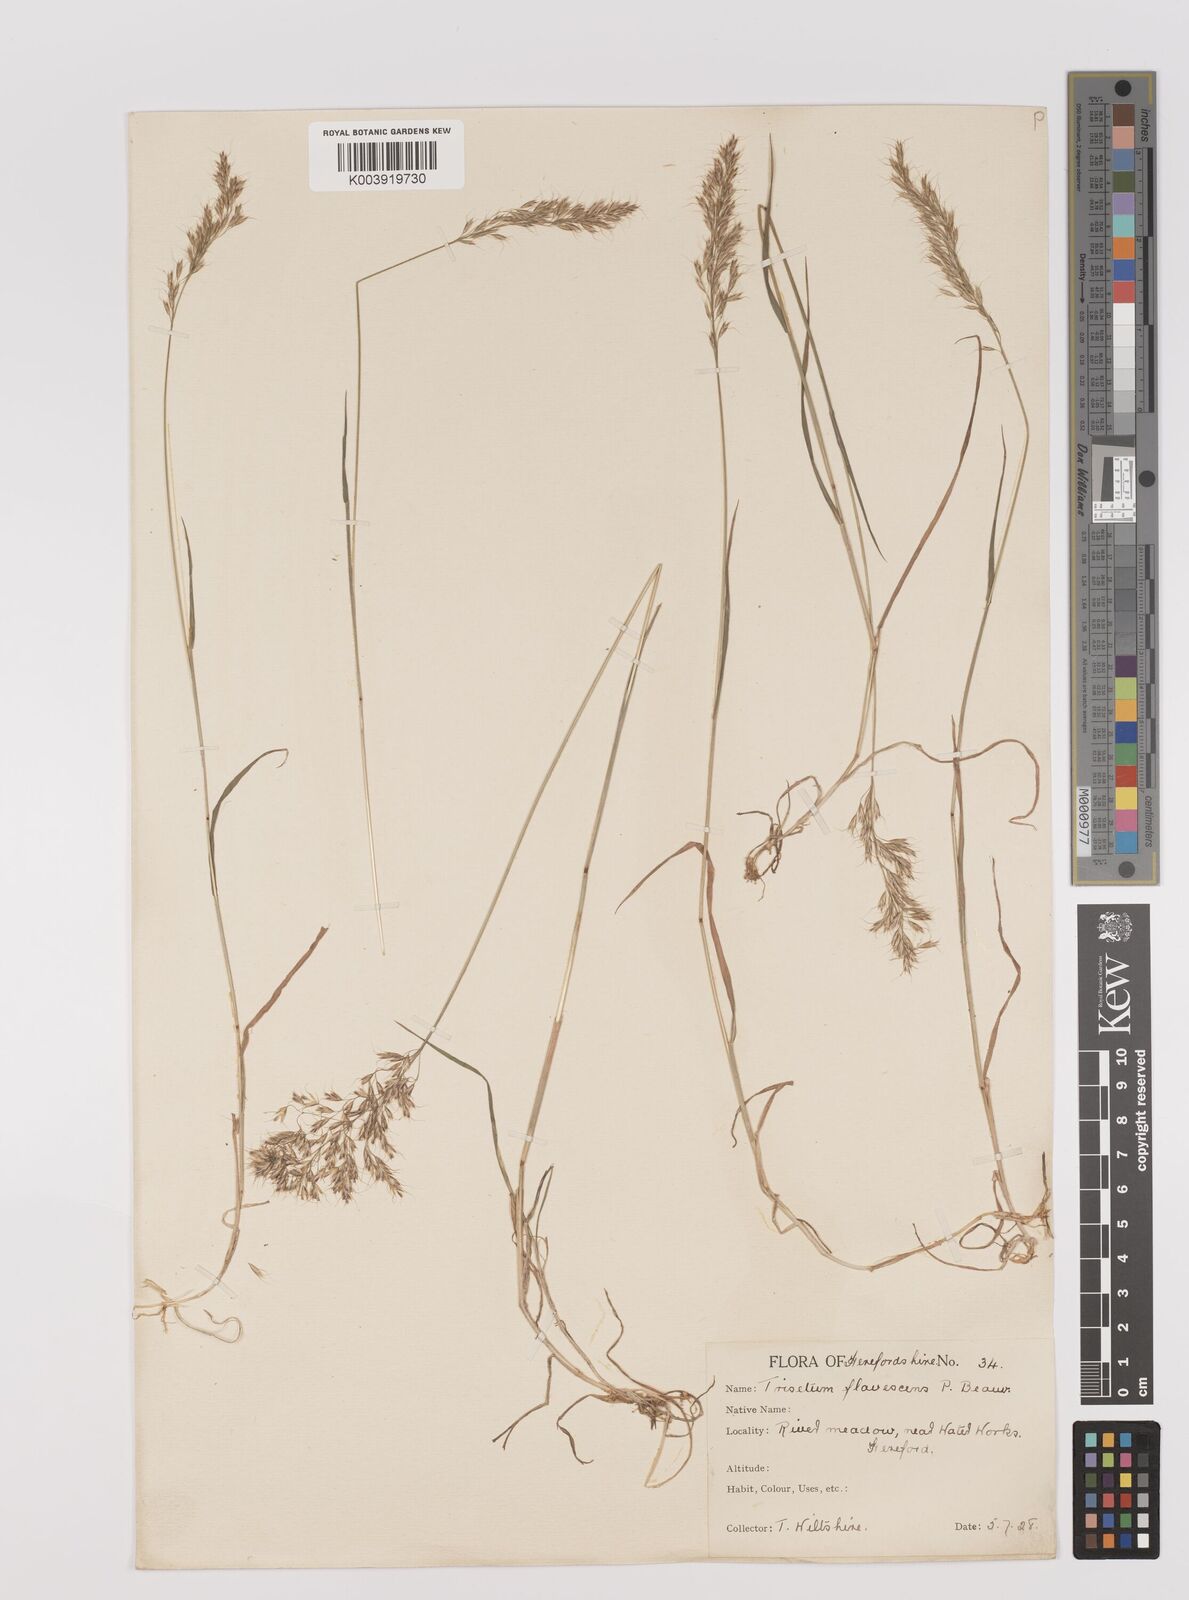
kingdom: Plantae
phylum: Tracheophyta
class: Liliopsida
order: Poales
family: Poaceae
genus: Trisetum
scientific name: Trisetum flavescens
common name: Yellow oat-grass
